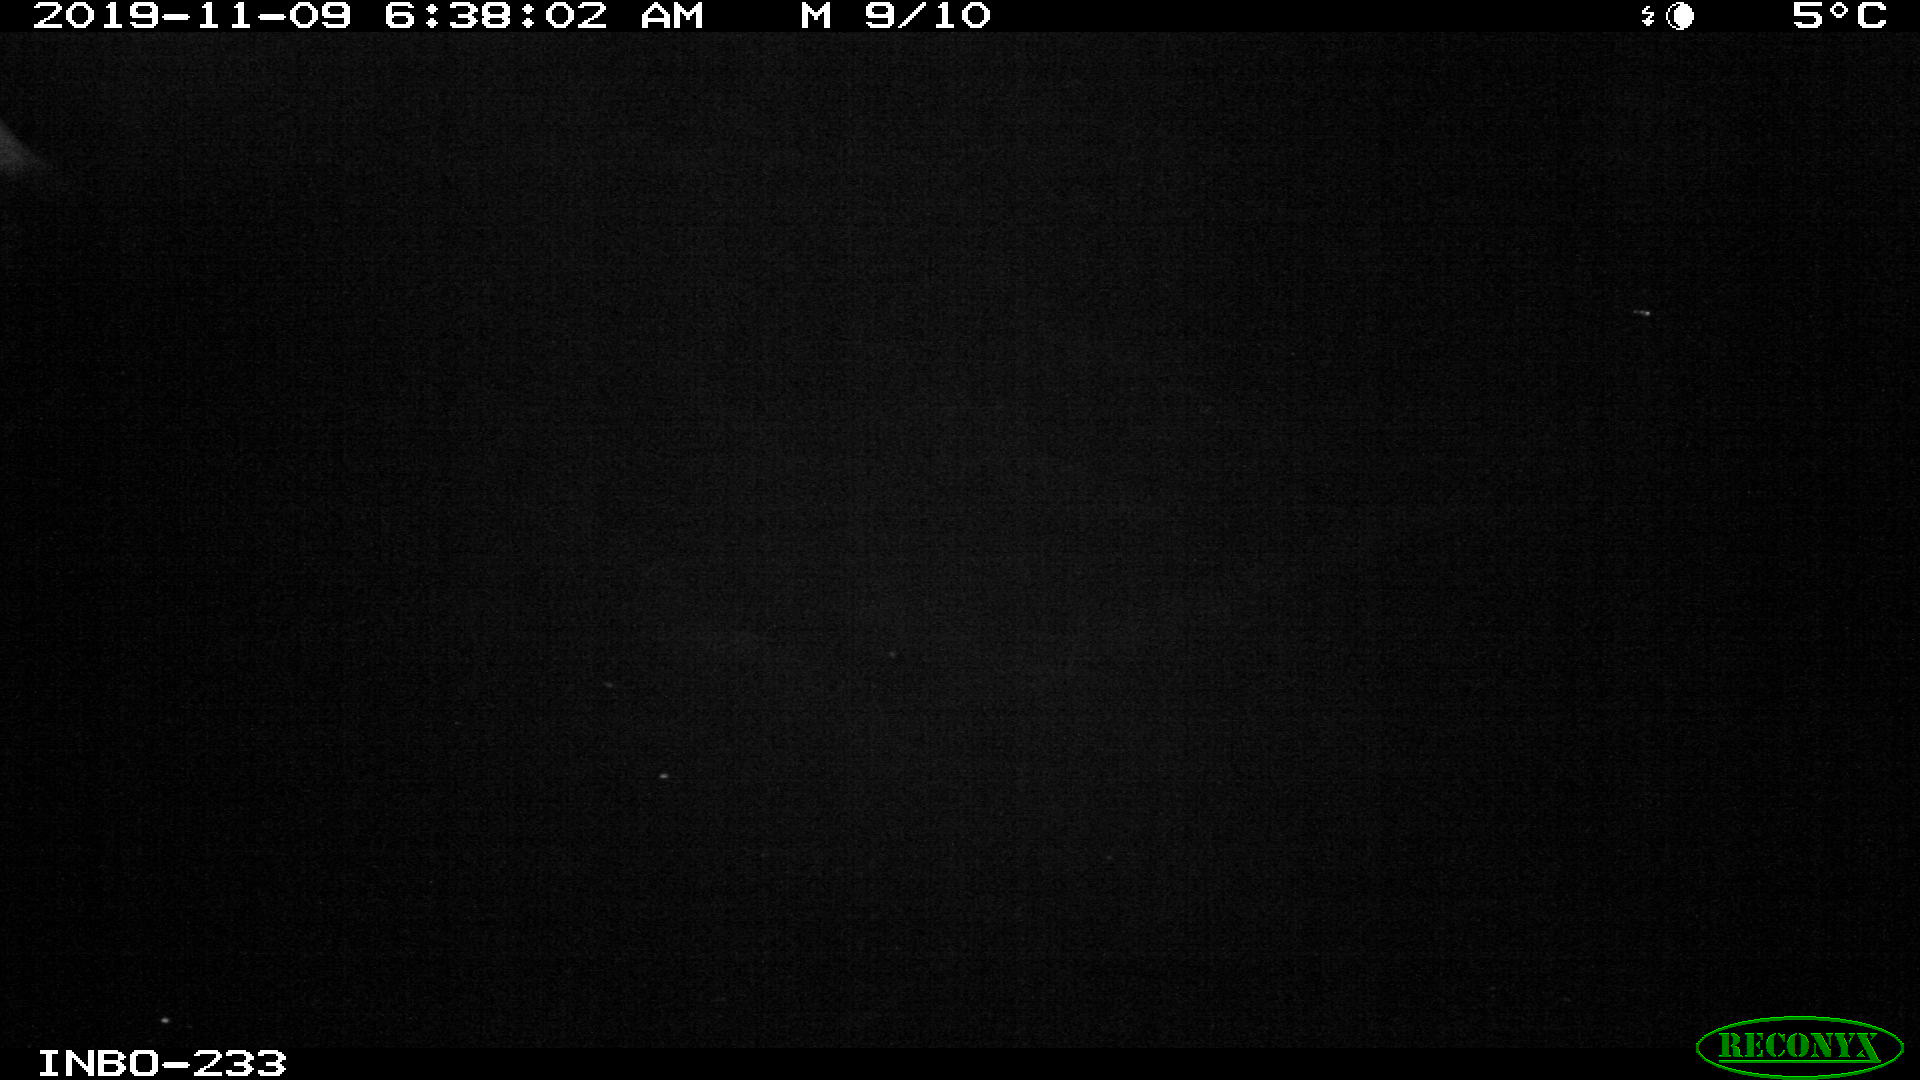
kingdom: Animalia
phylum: Chordata
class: Aves
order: Anseriformes
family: Anatidae
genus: Anas
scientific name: Anas platyrhynchos
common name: Mallard
